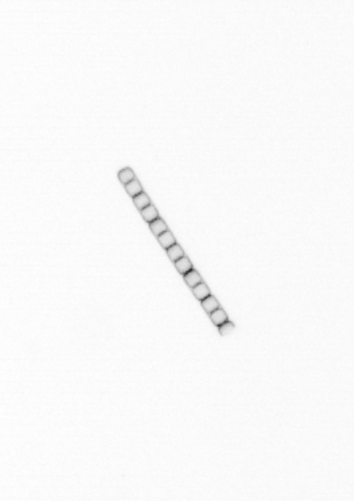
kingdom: Chromista
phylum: Ochrophyta
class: Bacillariophyceae
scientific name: Bacillariophyceae
